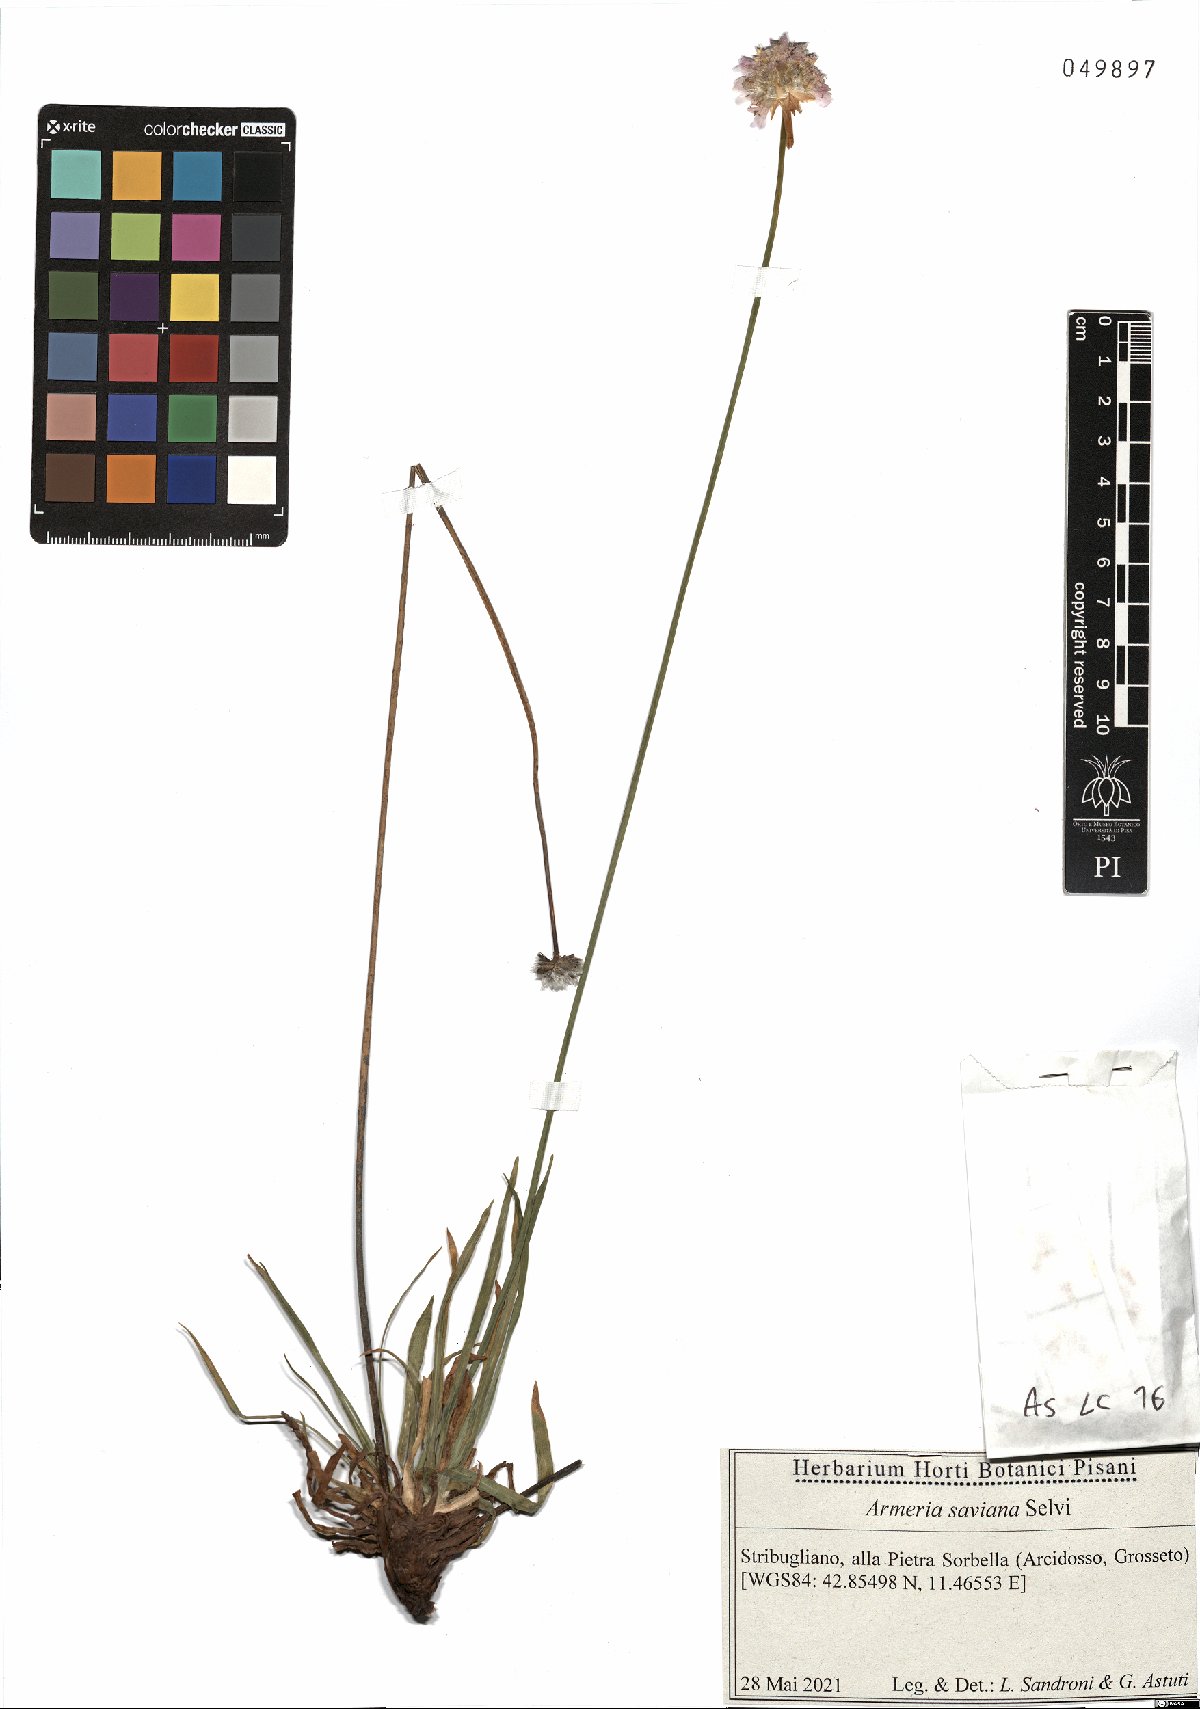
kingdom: Plantae
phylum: Tracheophyta
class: Magnoliopsida
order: Caryophyllales
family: Plumbaginaceae
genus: Armeria
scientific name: Armeria saviana
